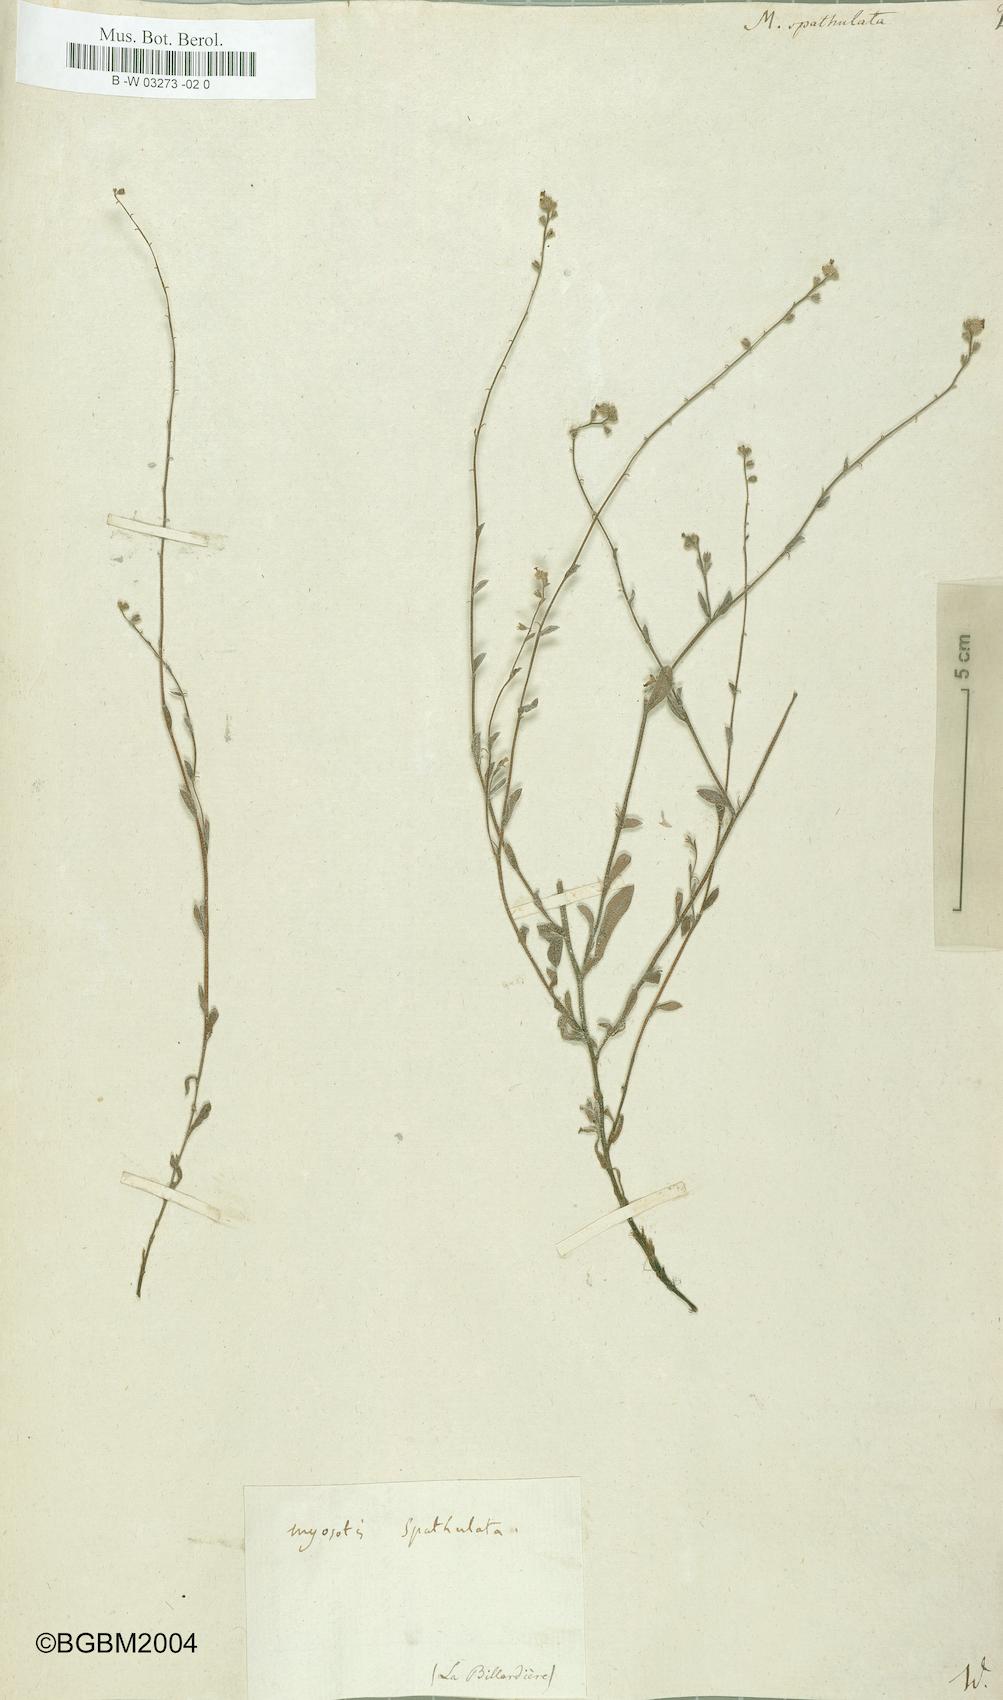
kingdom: Plantae
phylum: Tracheophyta
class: Magnoliopsida
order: Boraginales
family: Boraginaceae
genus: Myosotis
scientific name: Myosotis spathulata
